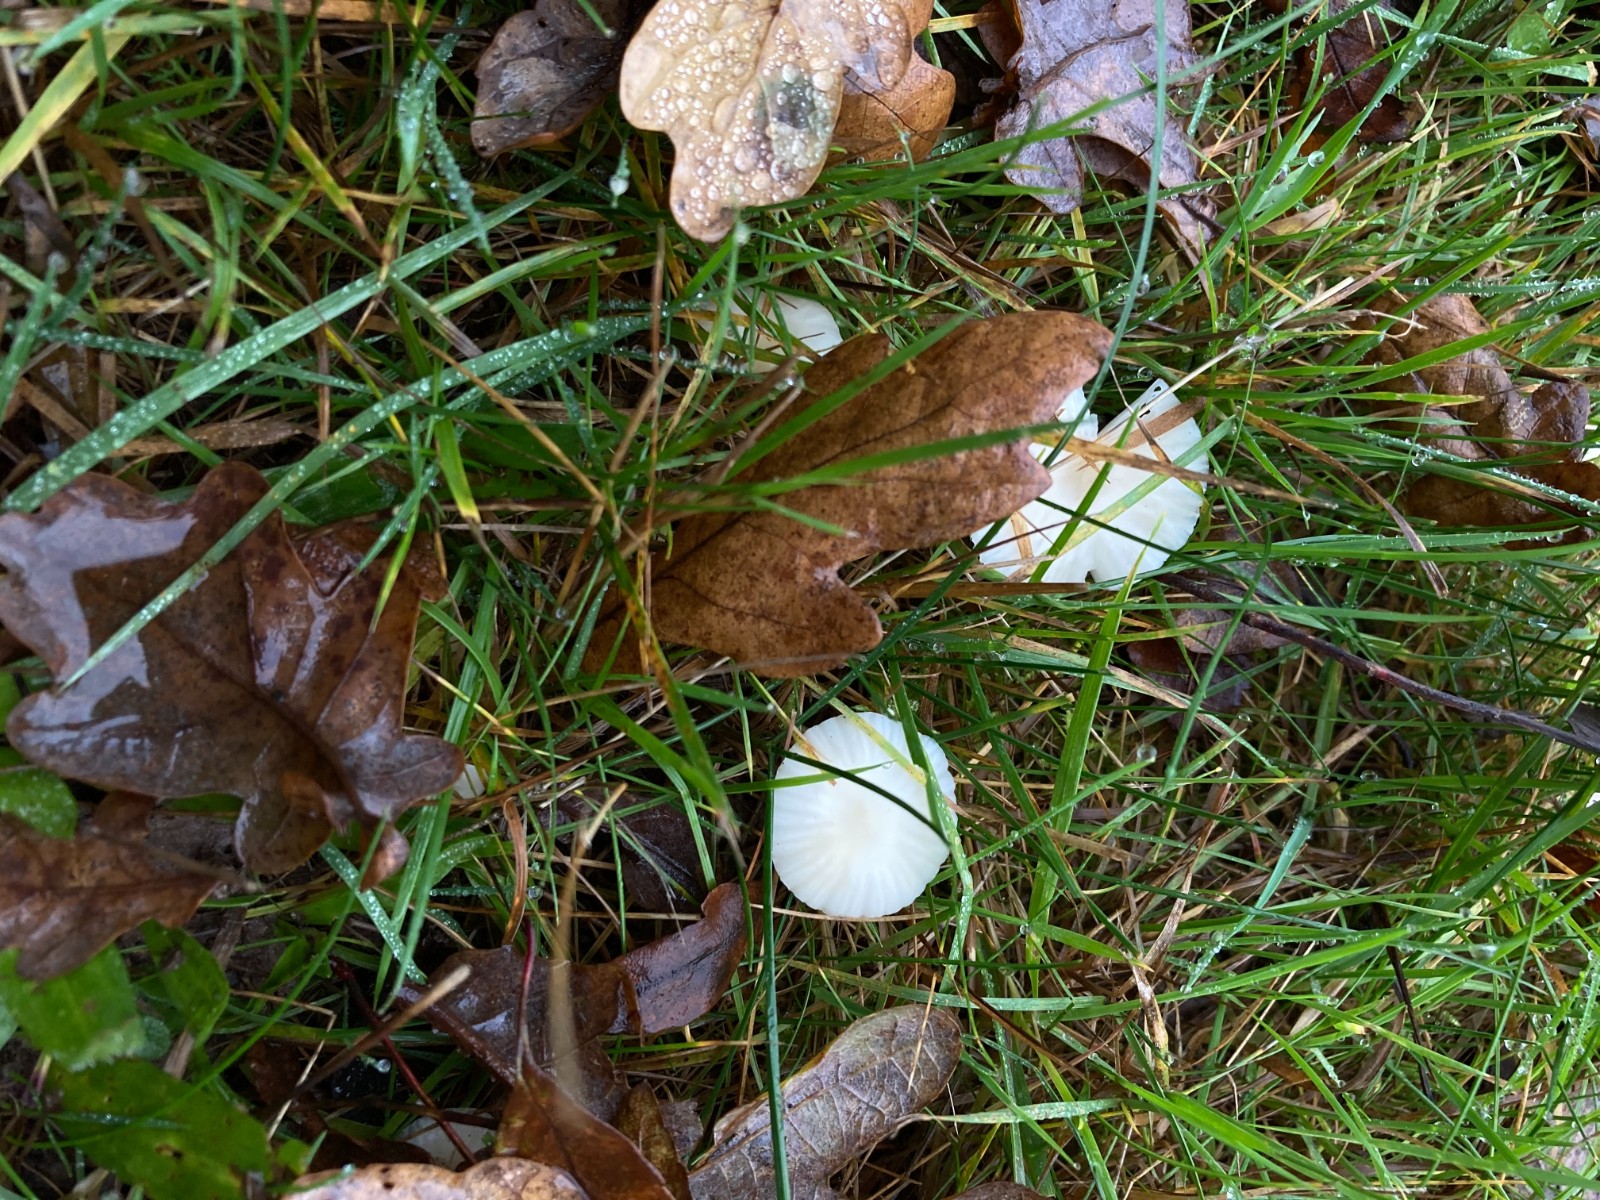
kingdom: Fungi
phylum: Basidiomycota
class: Agaricomycetes
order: Agaricales
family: Hygrophoraceae
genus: Cuphophyllus
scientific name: Cuphophyllus virgineus
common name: snehvid vokshat
